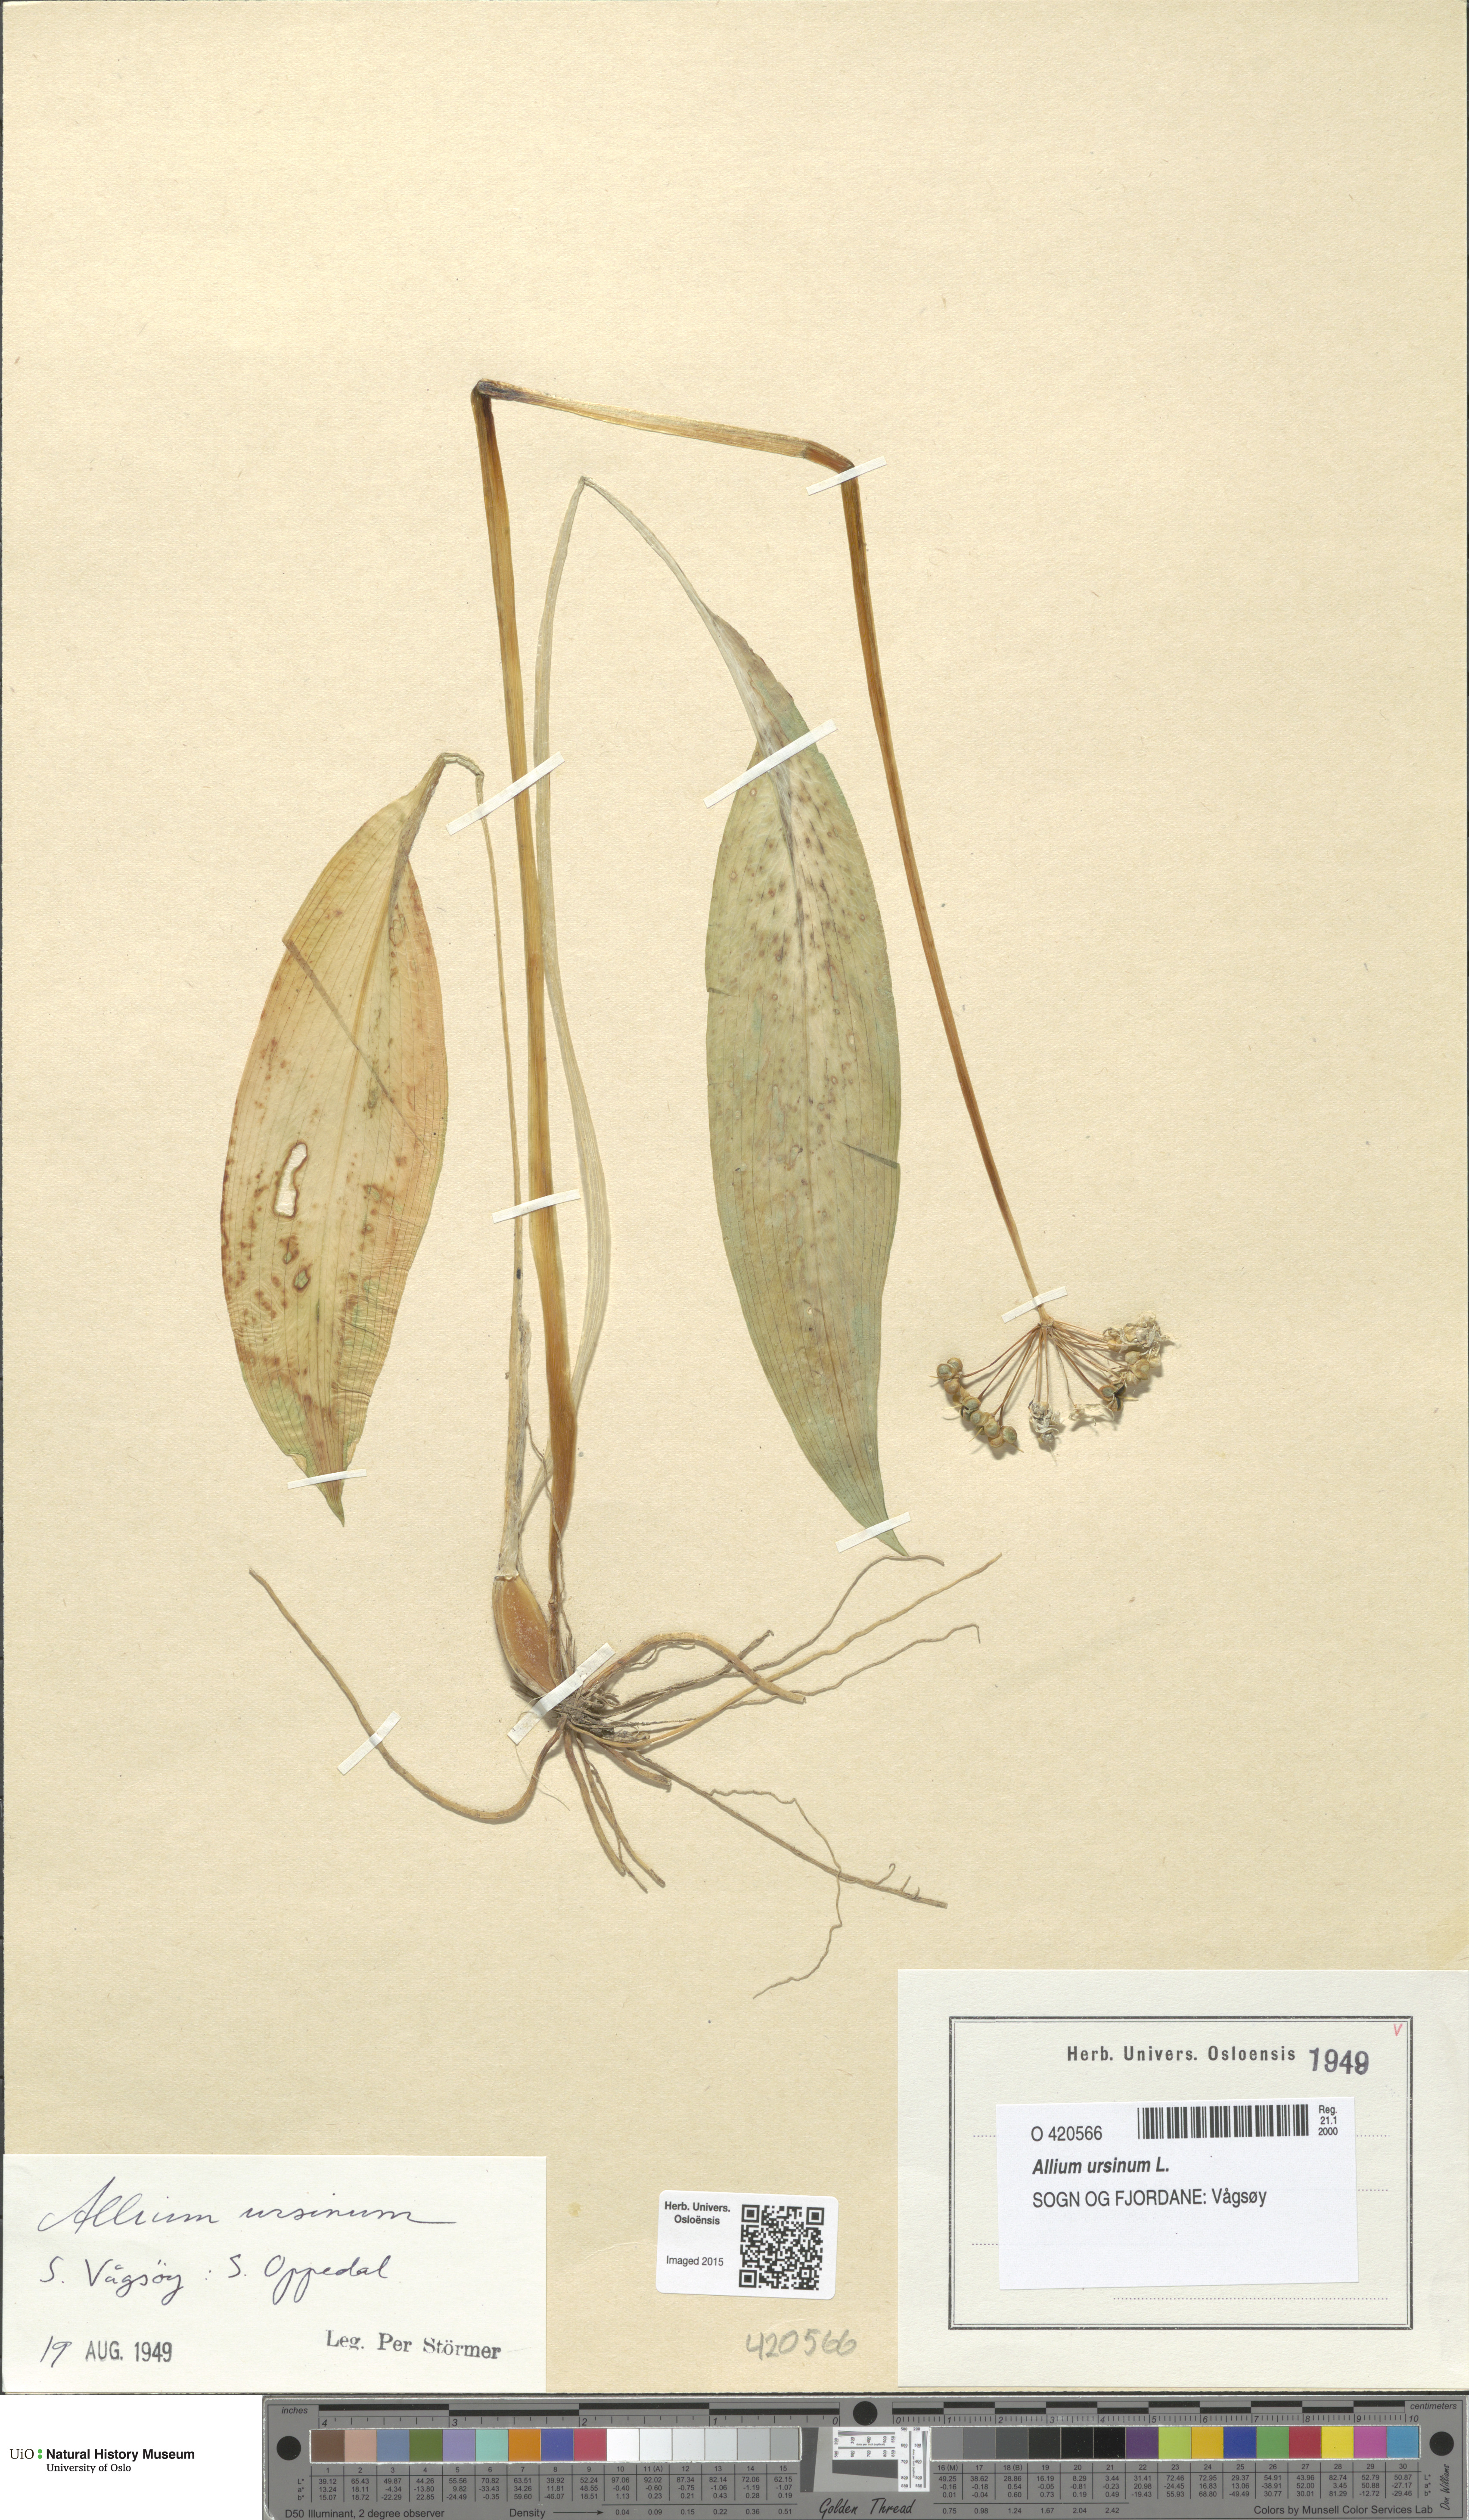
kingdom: Plantae
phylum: Tracheophyta
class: Liliopsida
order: Asparagales
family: Amaryllidaceae
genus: Allium
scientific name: Allium ursinum
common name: Ramsons
